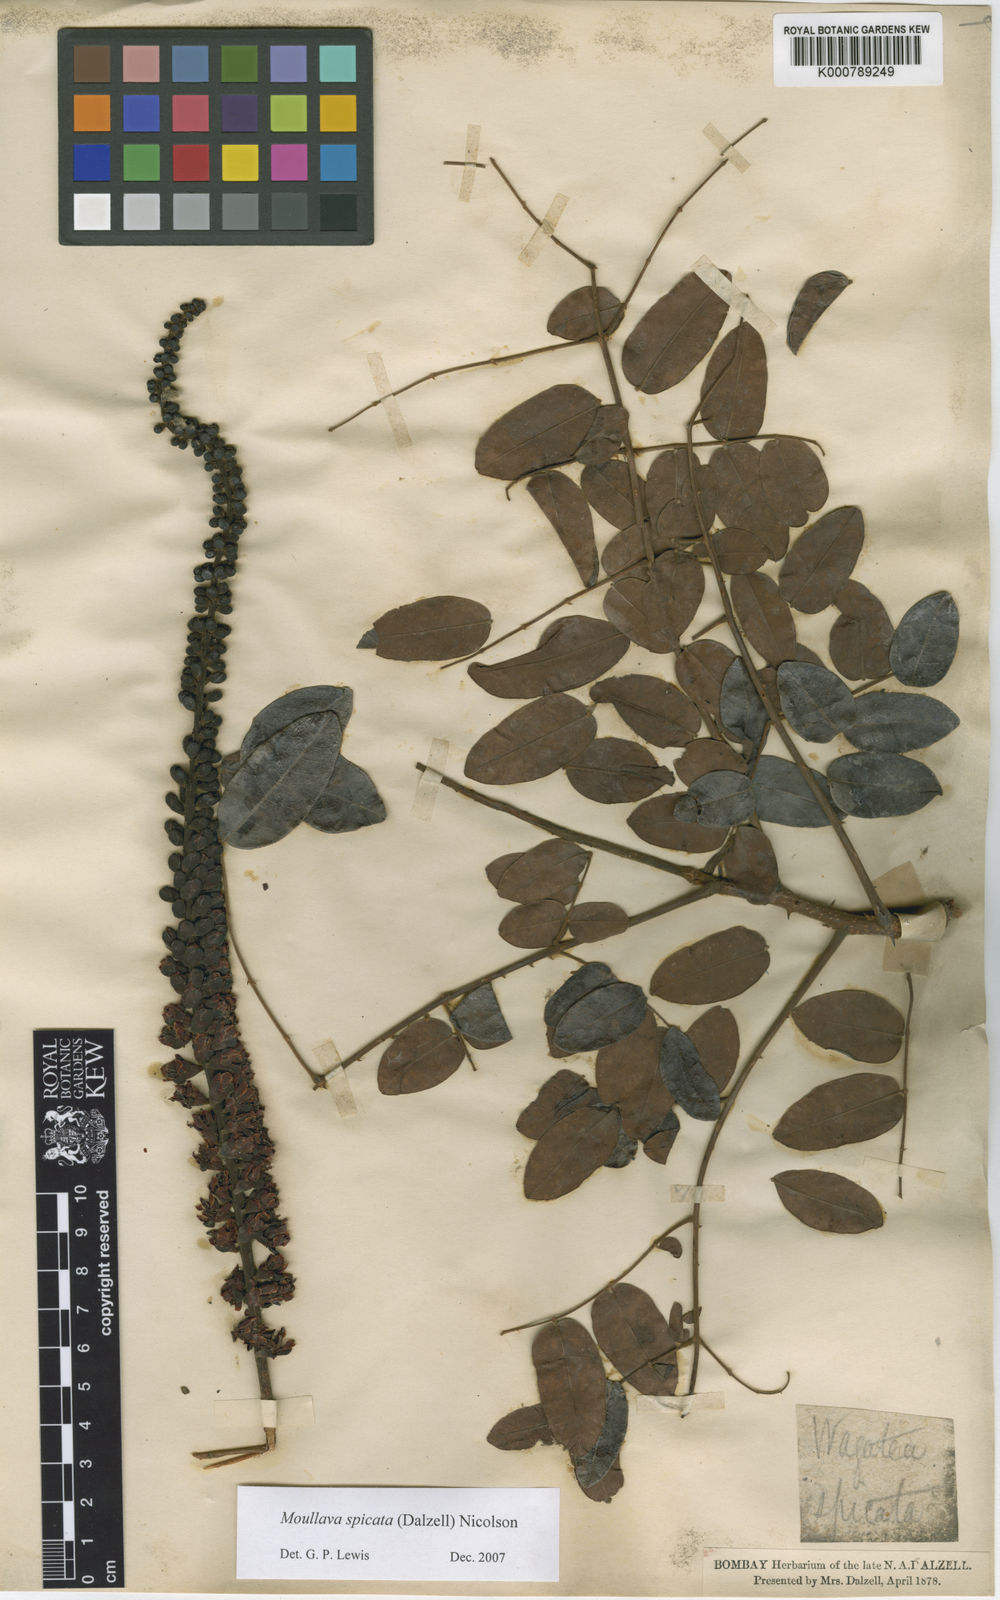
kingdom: Plantae
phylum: Tracheophyta
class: Magnoliopsida
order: Fabales
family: Fabaceae
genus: Moullava
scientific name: Moullava spicata
